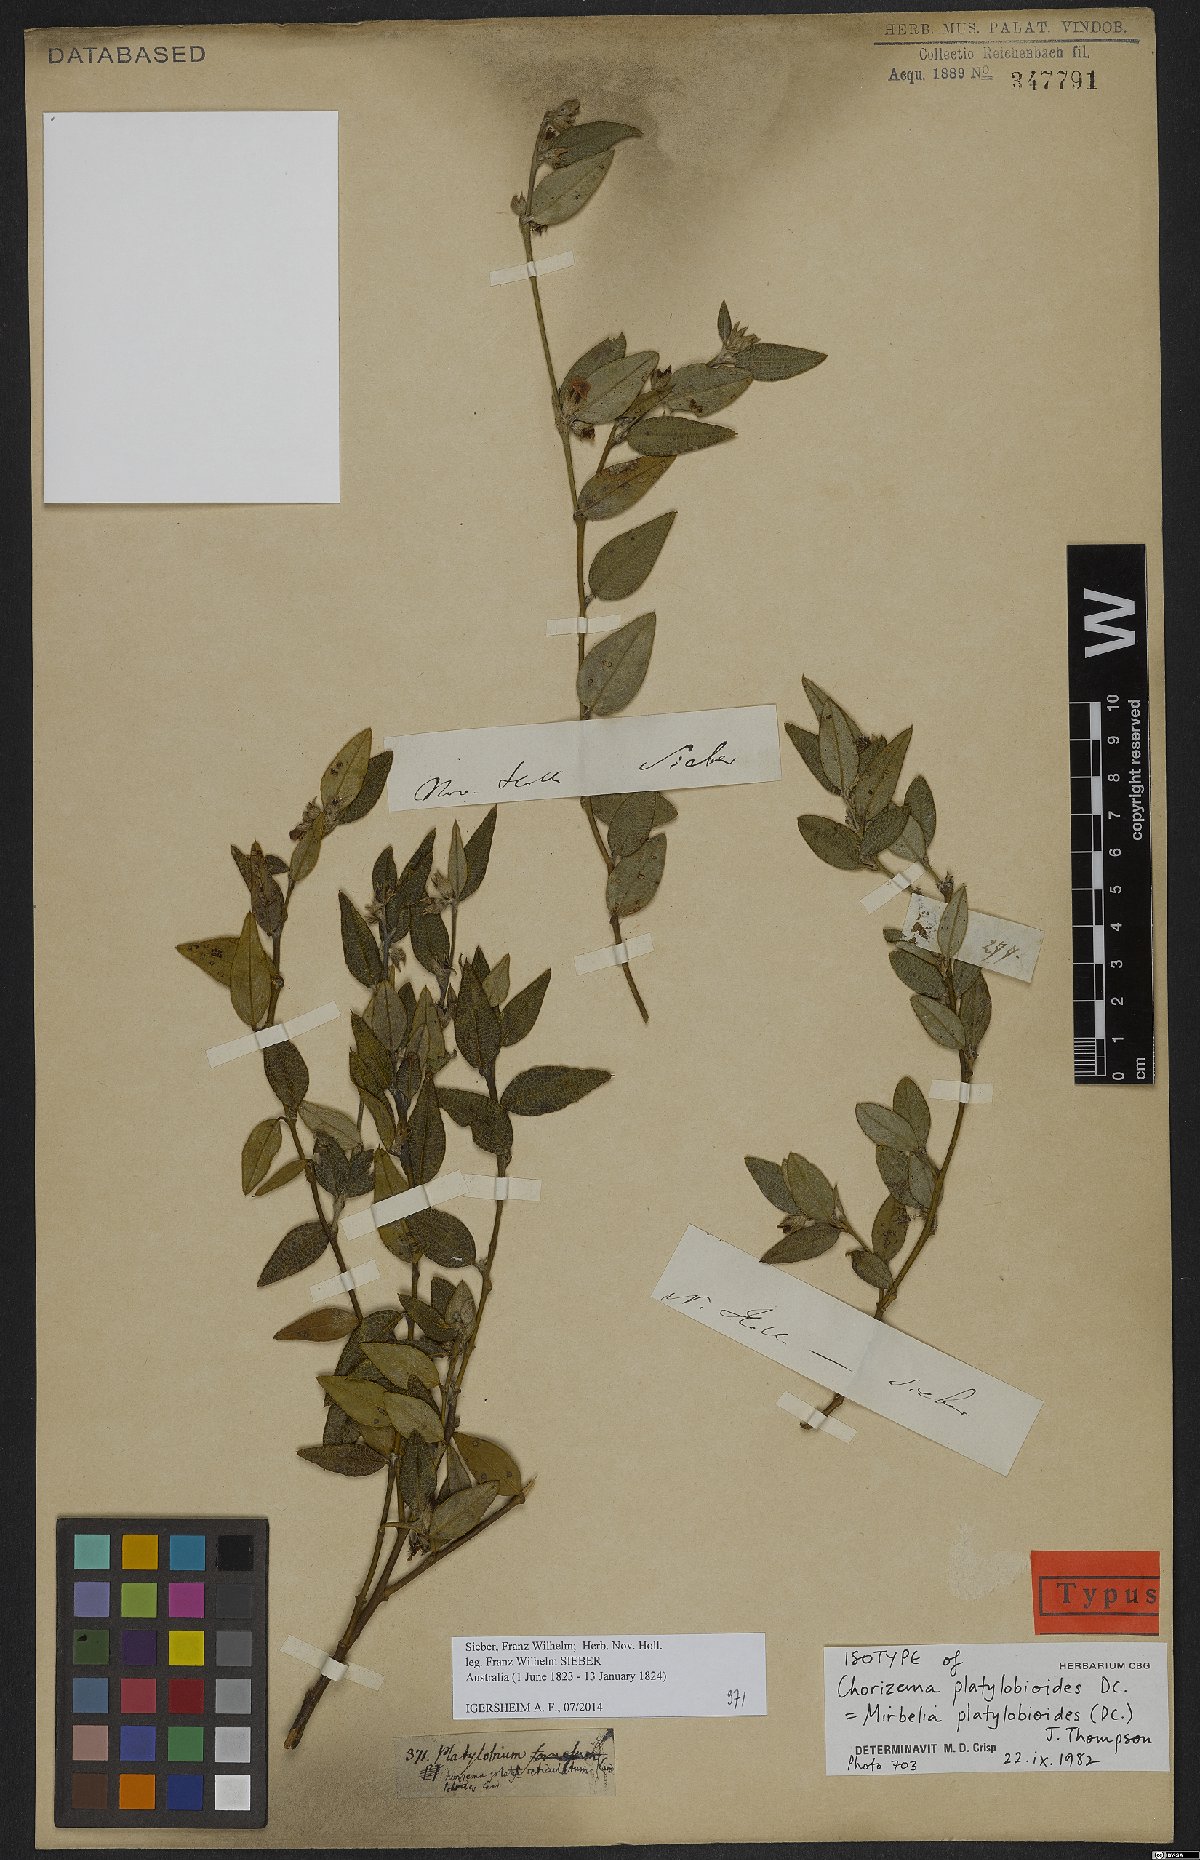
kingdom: Plantae
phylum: Tracheophyta
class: Magnoliopsida
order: Fabales
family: Fabaceae
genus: Mirbelia
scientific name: Mirbelia platylobioides
